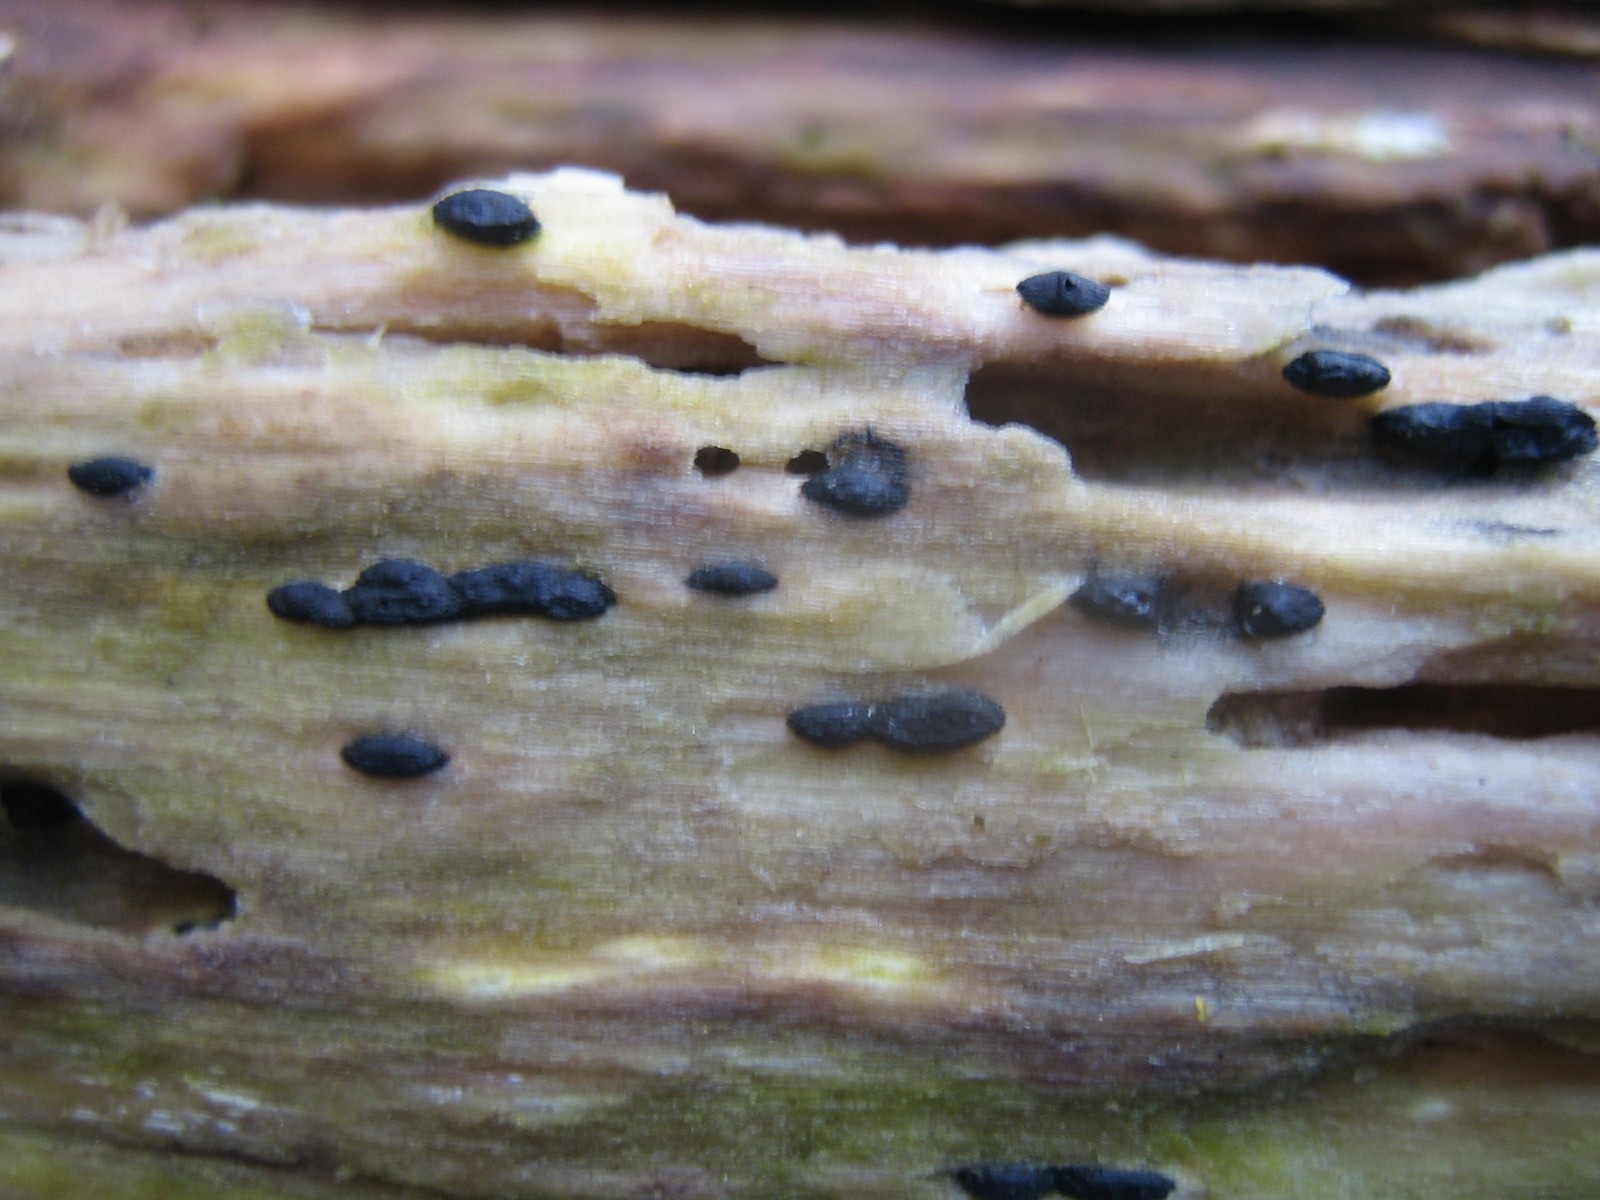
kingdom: Fungi
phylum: Ascomycota
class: Sordariomycetes
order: Xylariales
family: Xylariaceae
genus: Nemania
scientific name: Nemania
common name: kuldyne
